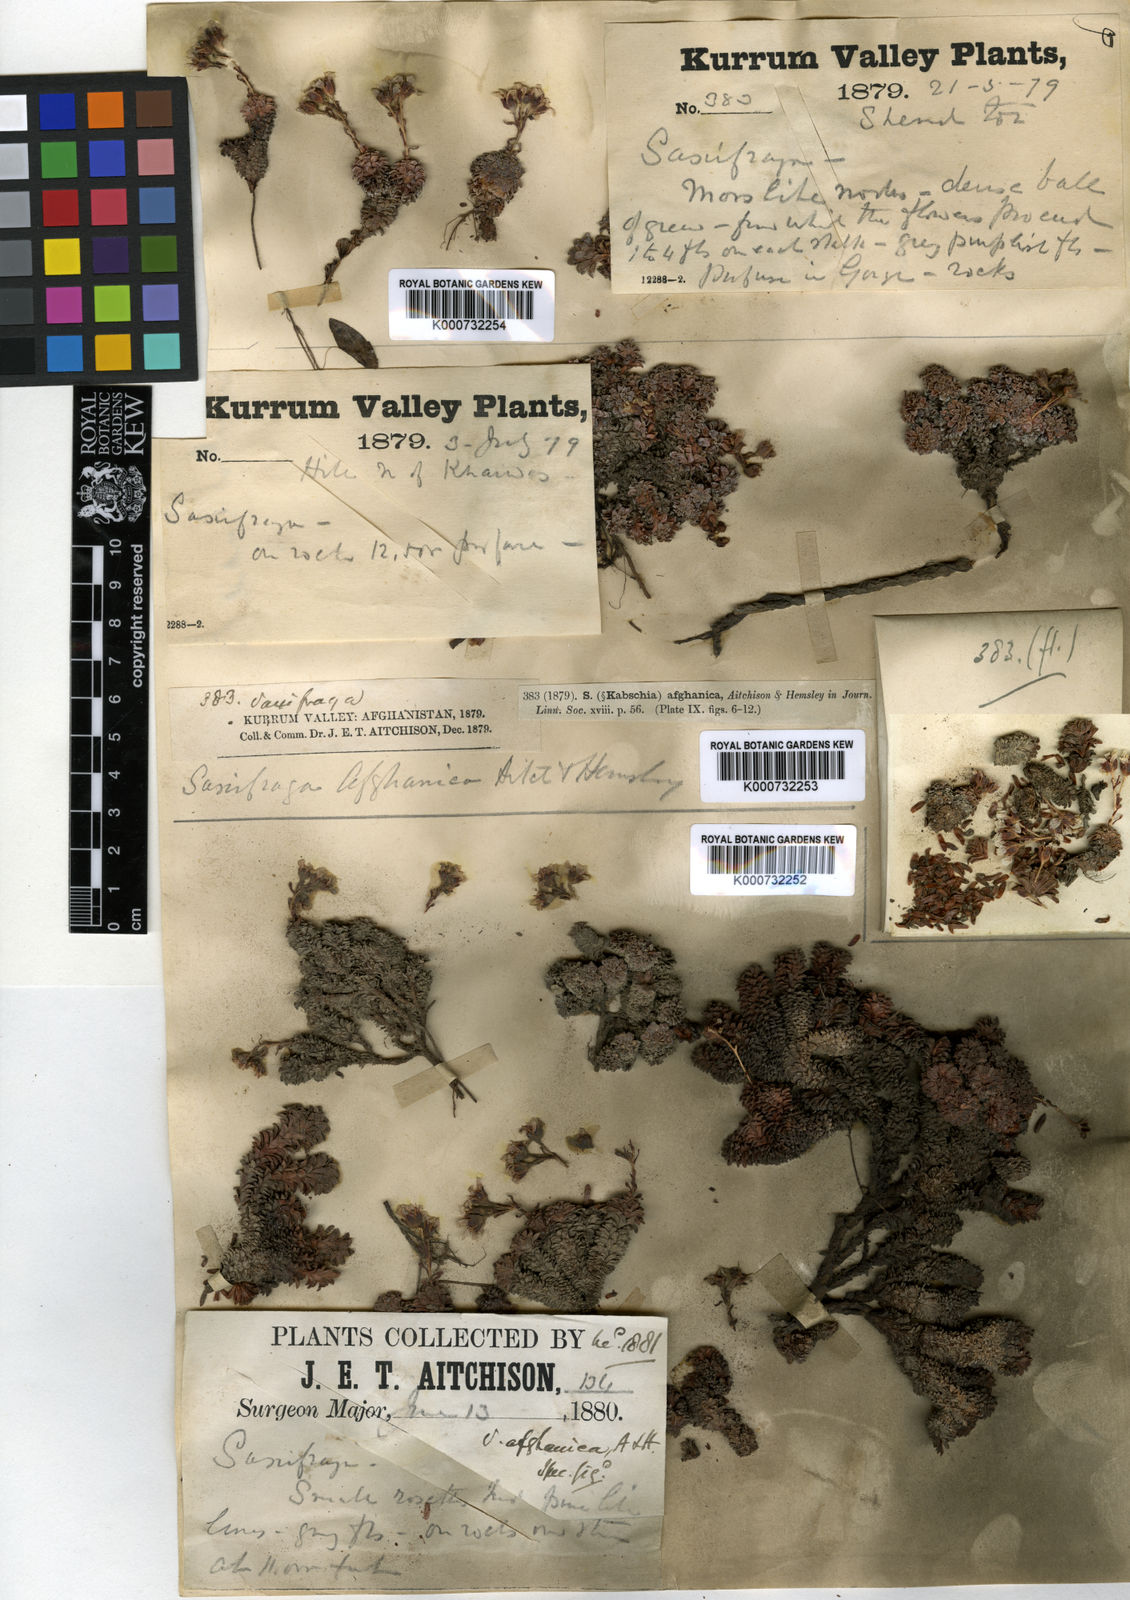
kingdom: Plantae
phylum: Tracheophyta
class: Magnoliopsida
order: Saxifragales
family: Saxifragaceae
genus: Saxifraga
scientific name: Saxifraga afghanica
